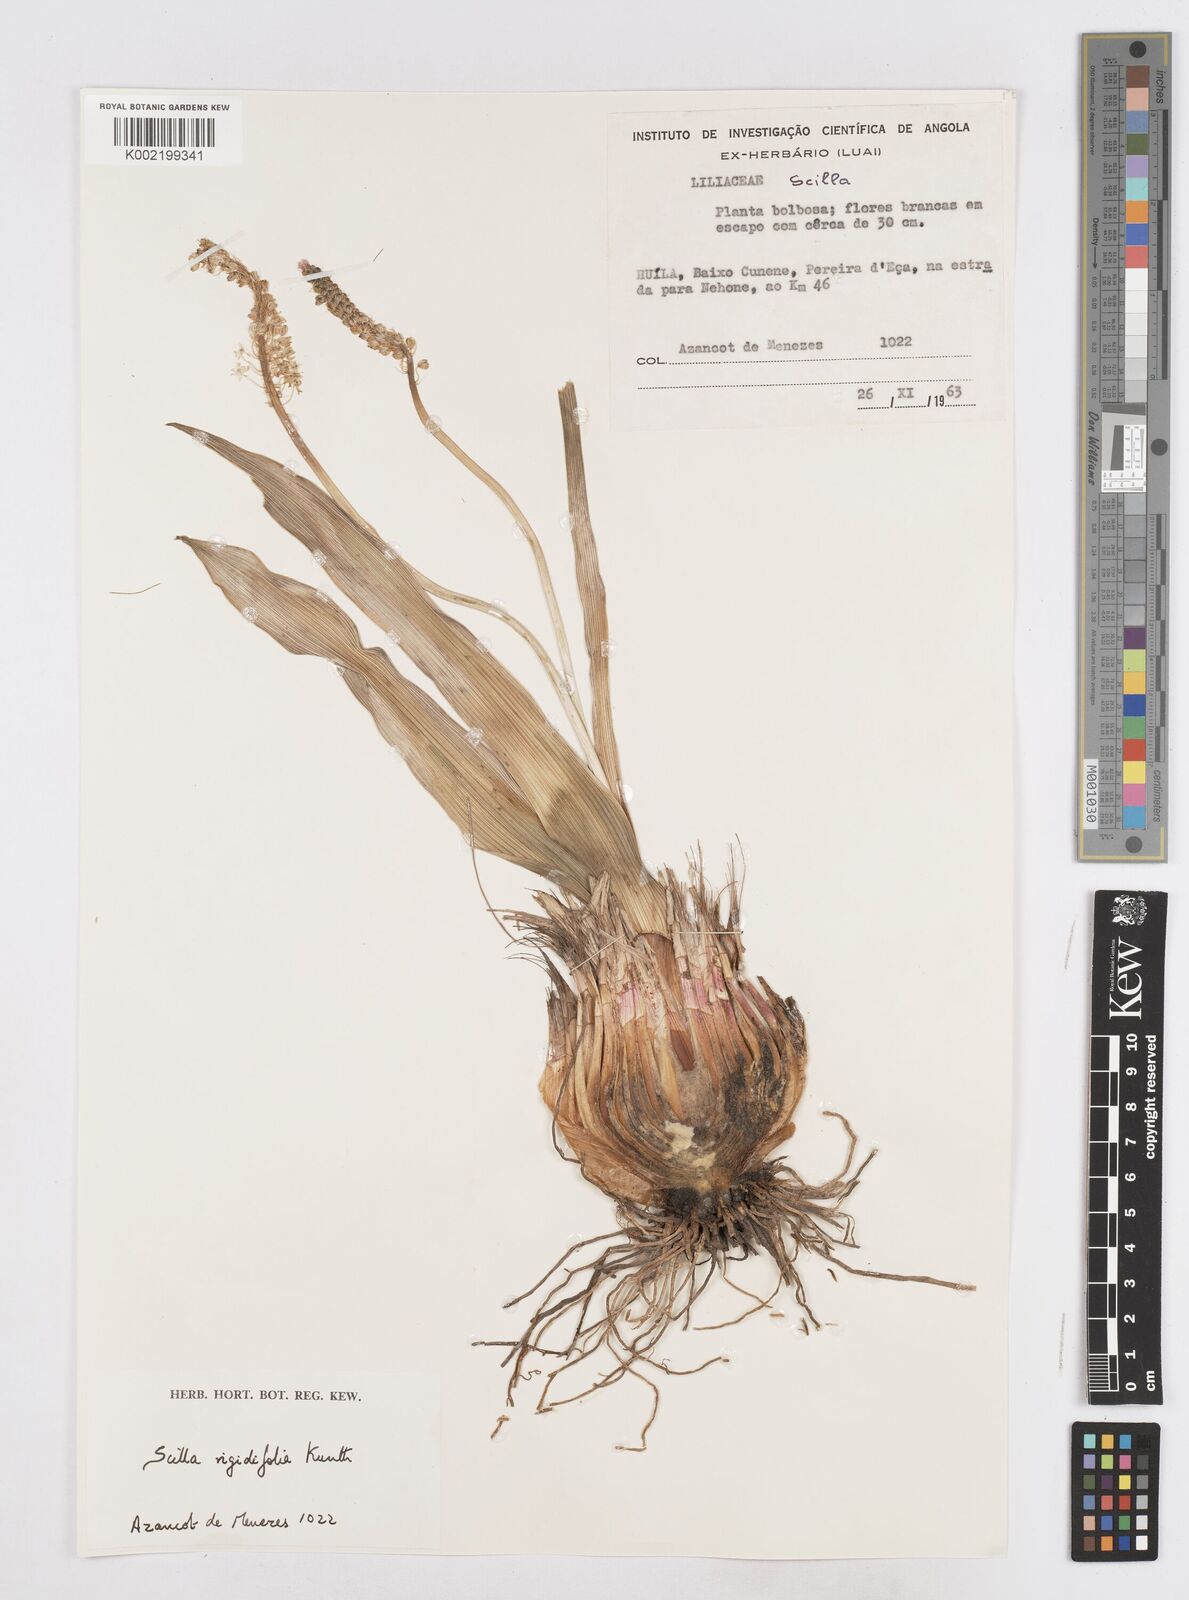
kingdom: Plantae
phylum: Tracheophyta
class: Liliopsida
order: Asparagales
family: Asparagaceae
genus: Schizocarphus
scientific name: Schizocarphus nervosus
